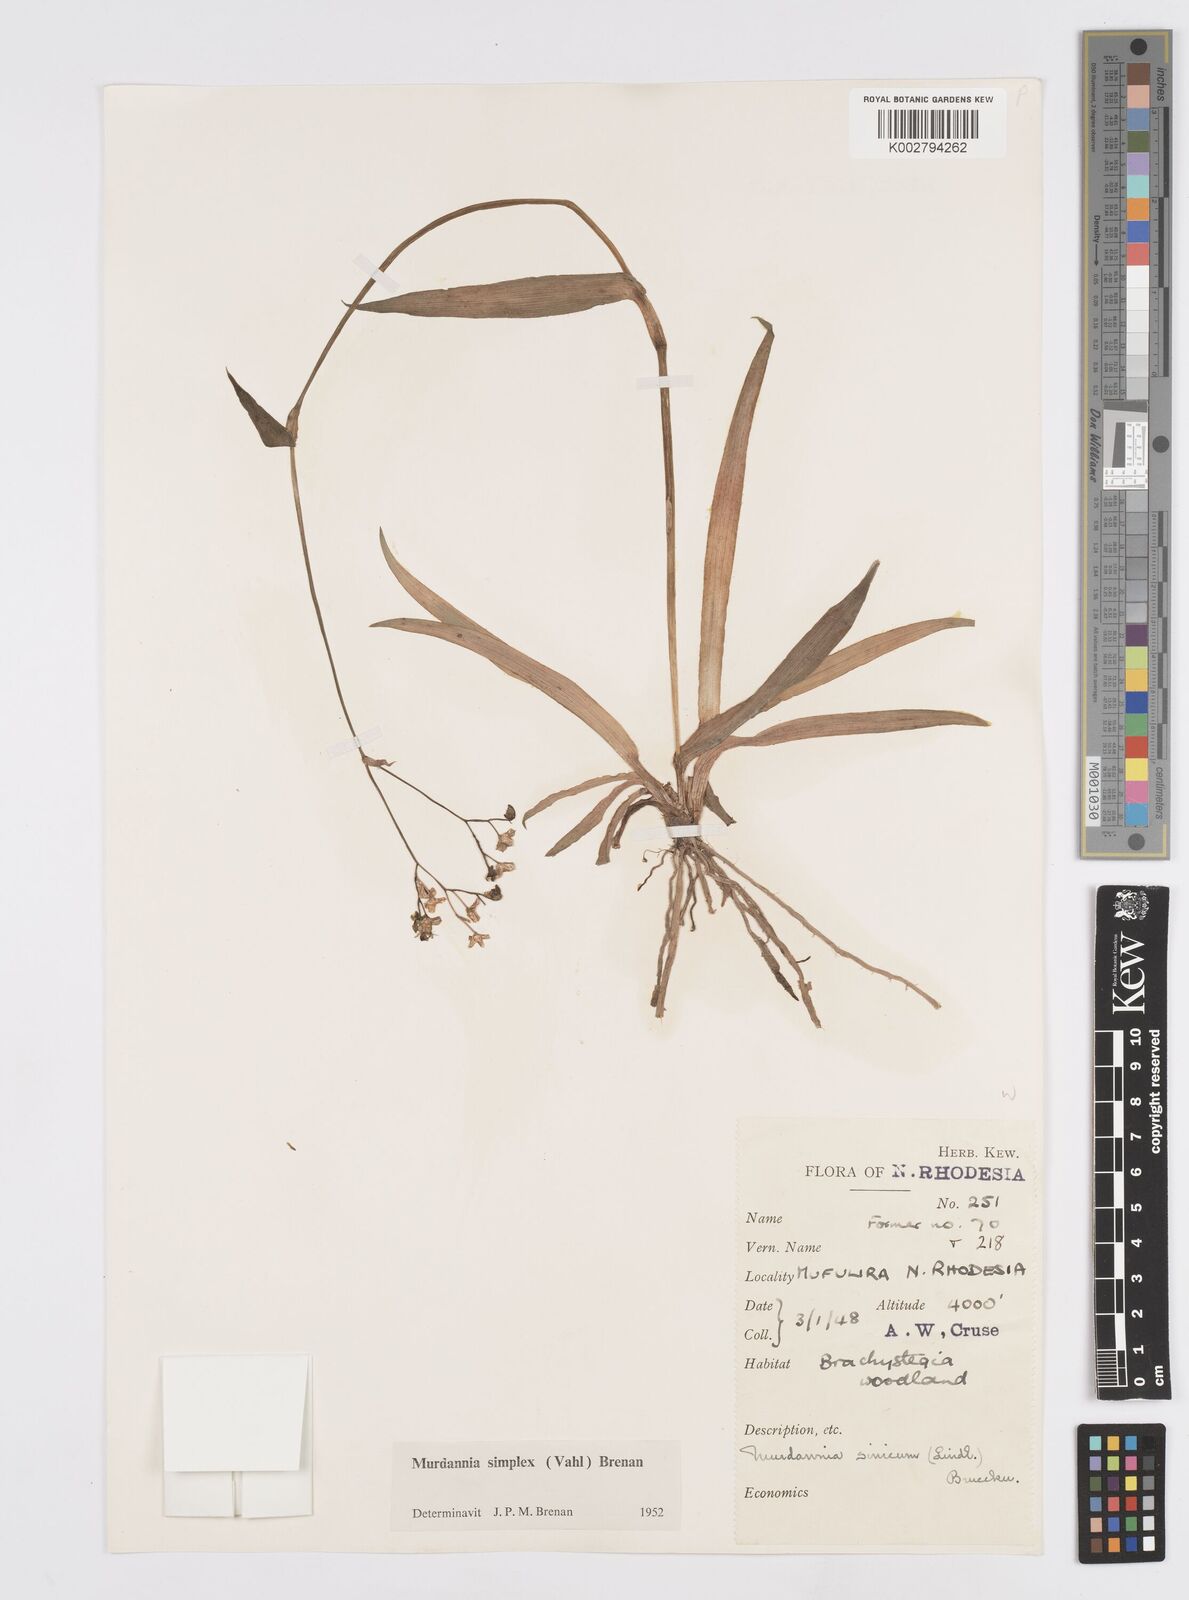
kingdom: Plantae
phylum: Tracheophyta
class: Liliopsida
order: Commelinales
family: Commelinaceae
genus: Murdannia
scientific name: Murdannia simplex
